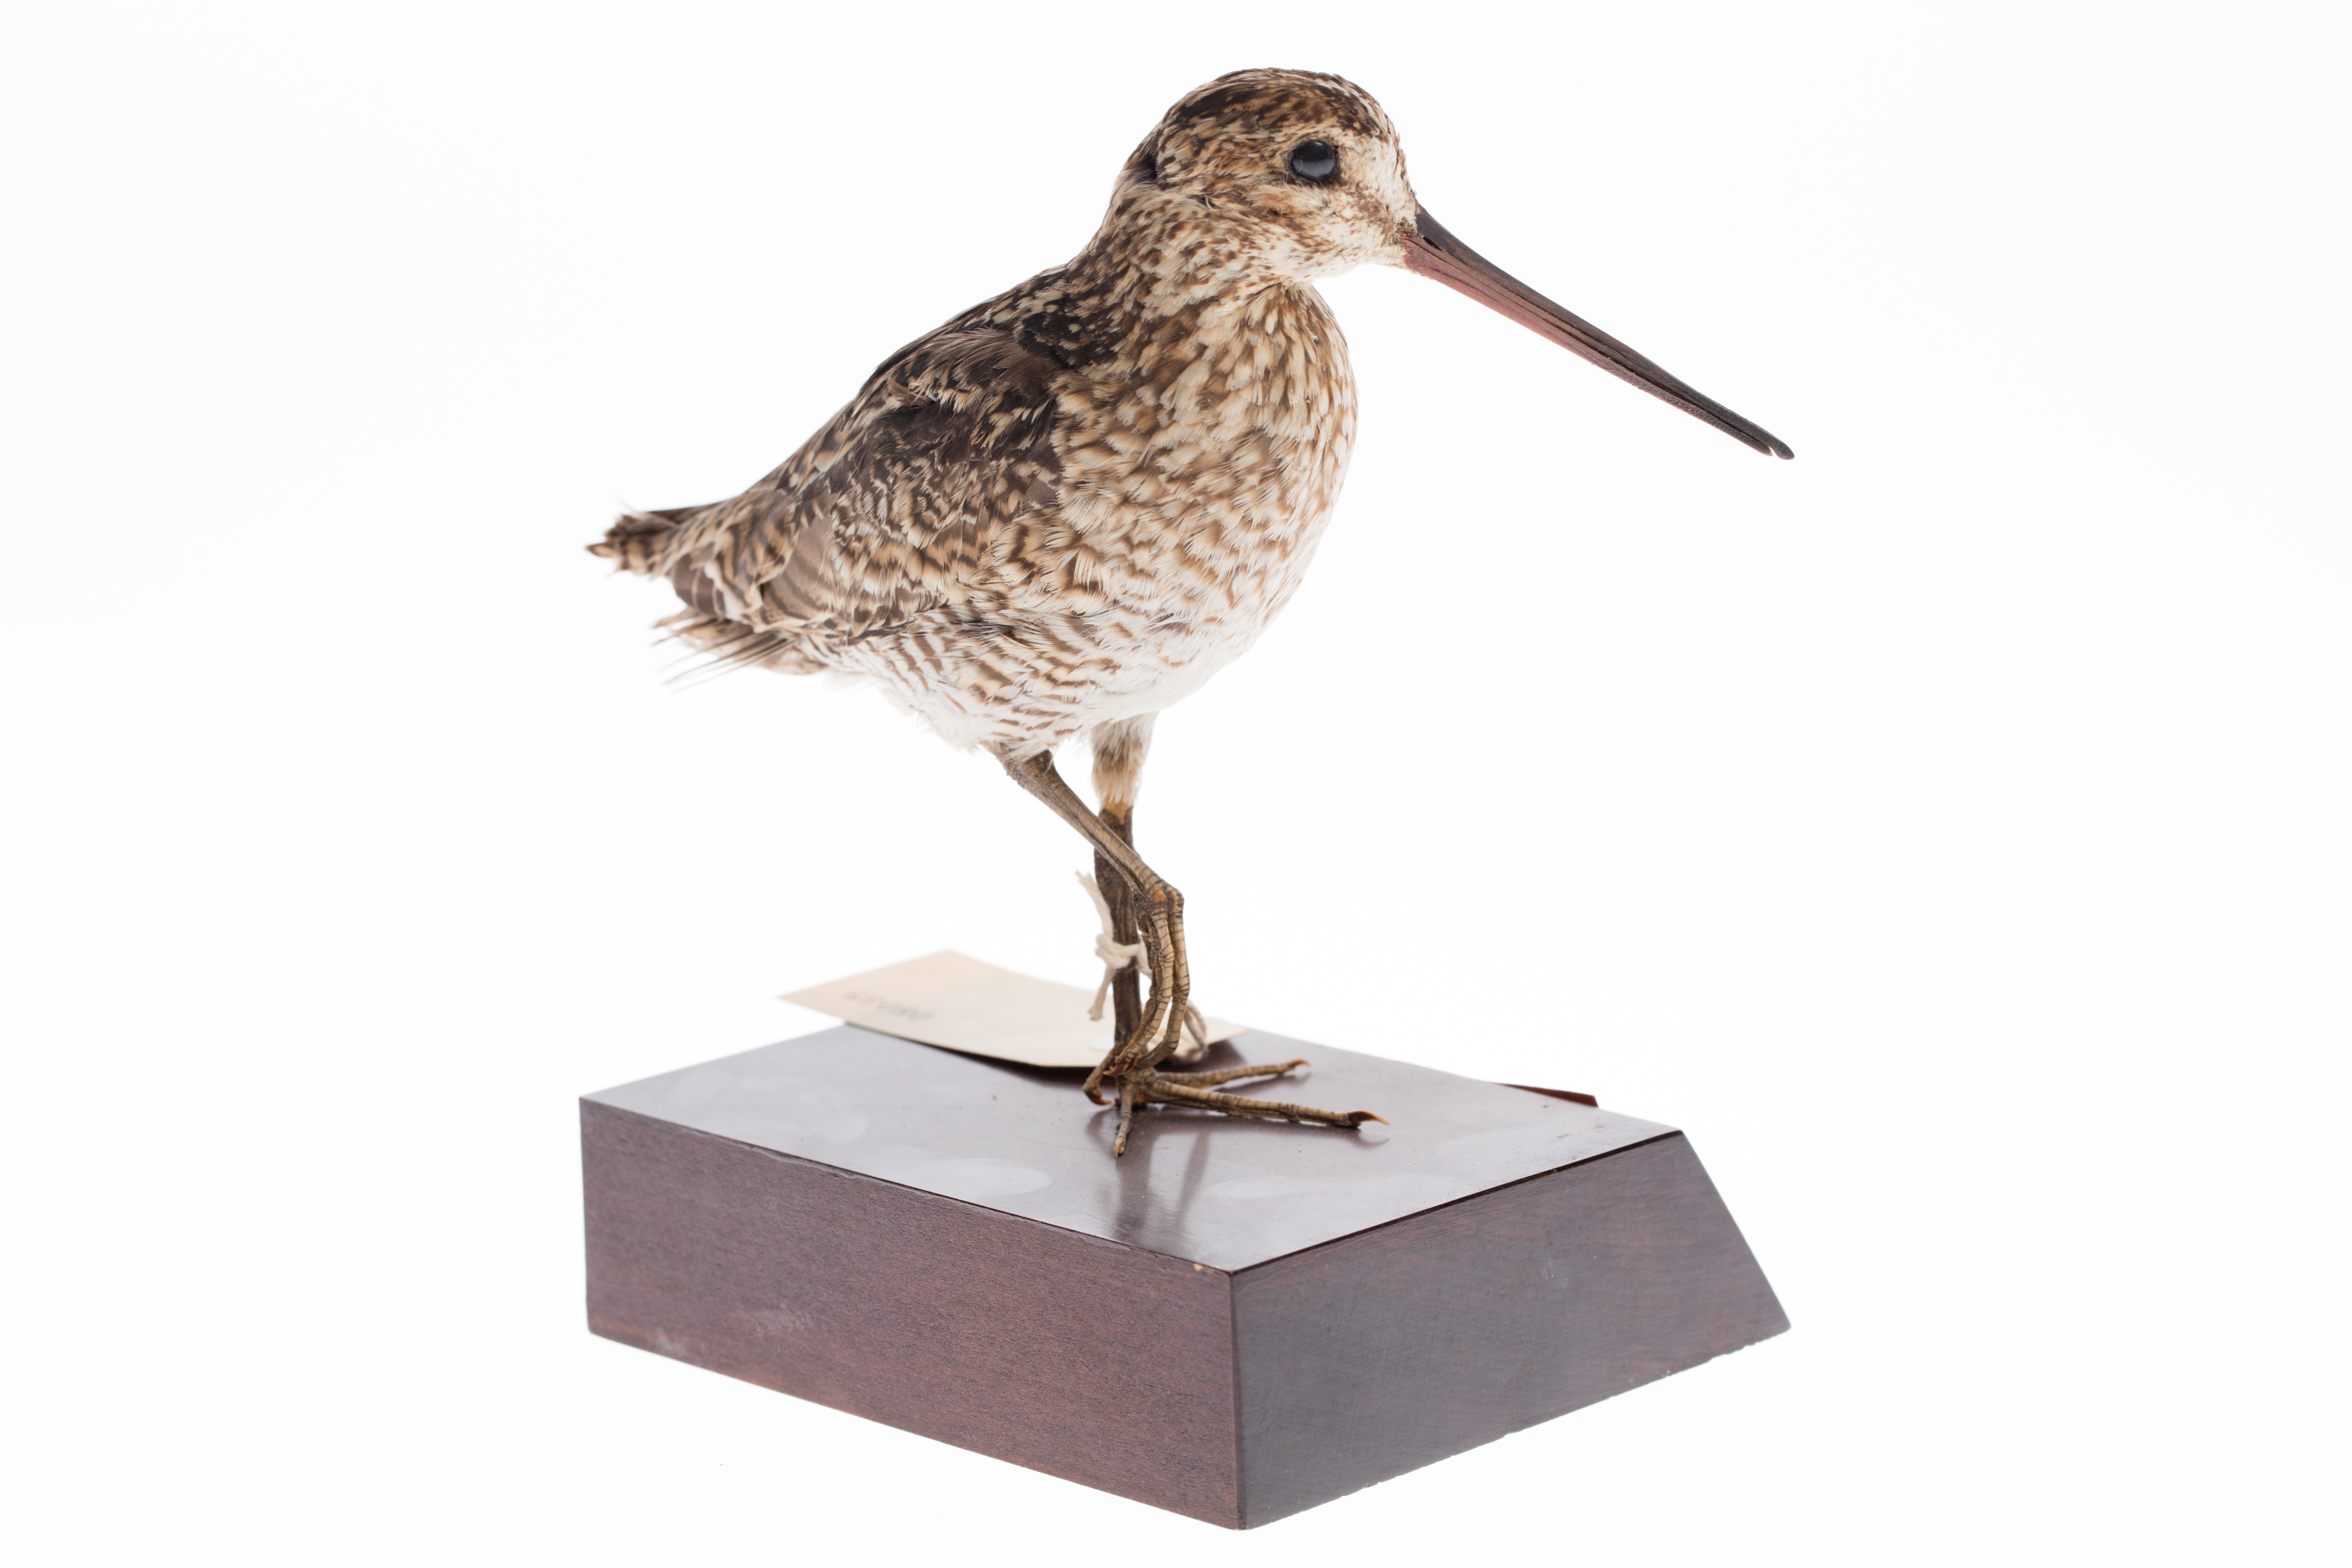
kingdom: Animalia
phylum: Chordata
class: Aves
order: Charadriiformes
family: Scolopacidae
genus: Gallinago
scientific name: Gallinago stenura
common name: Pin-tailed snipe
